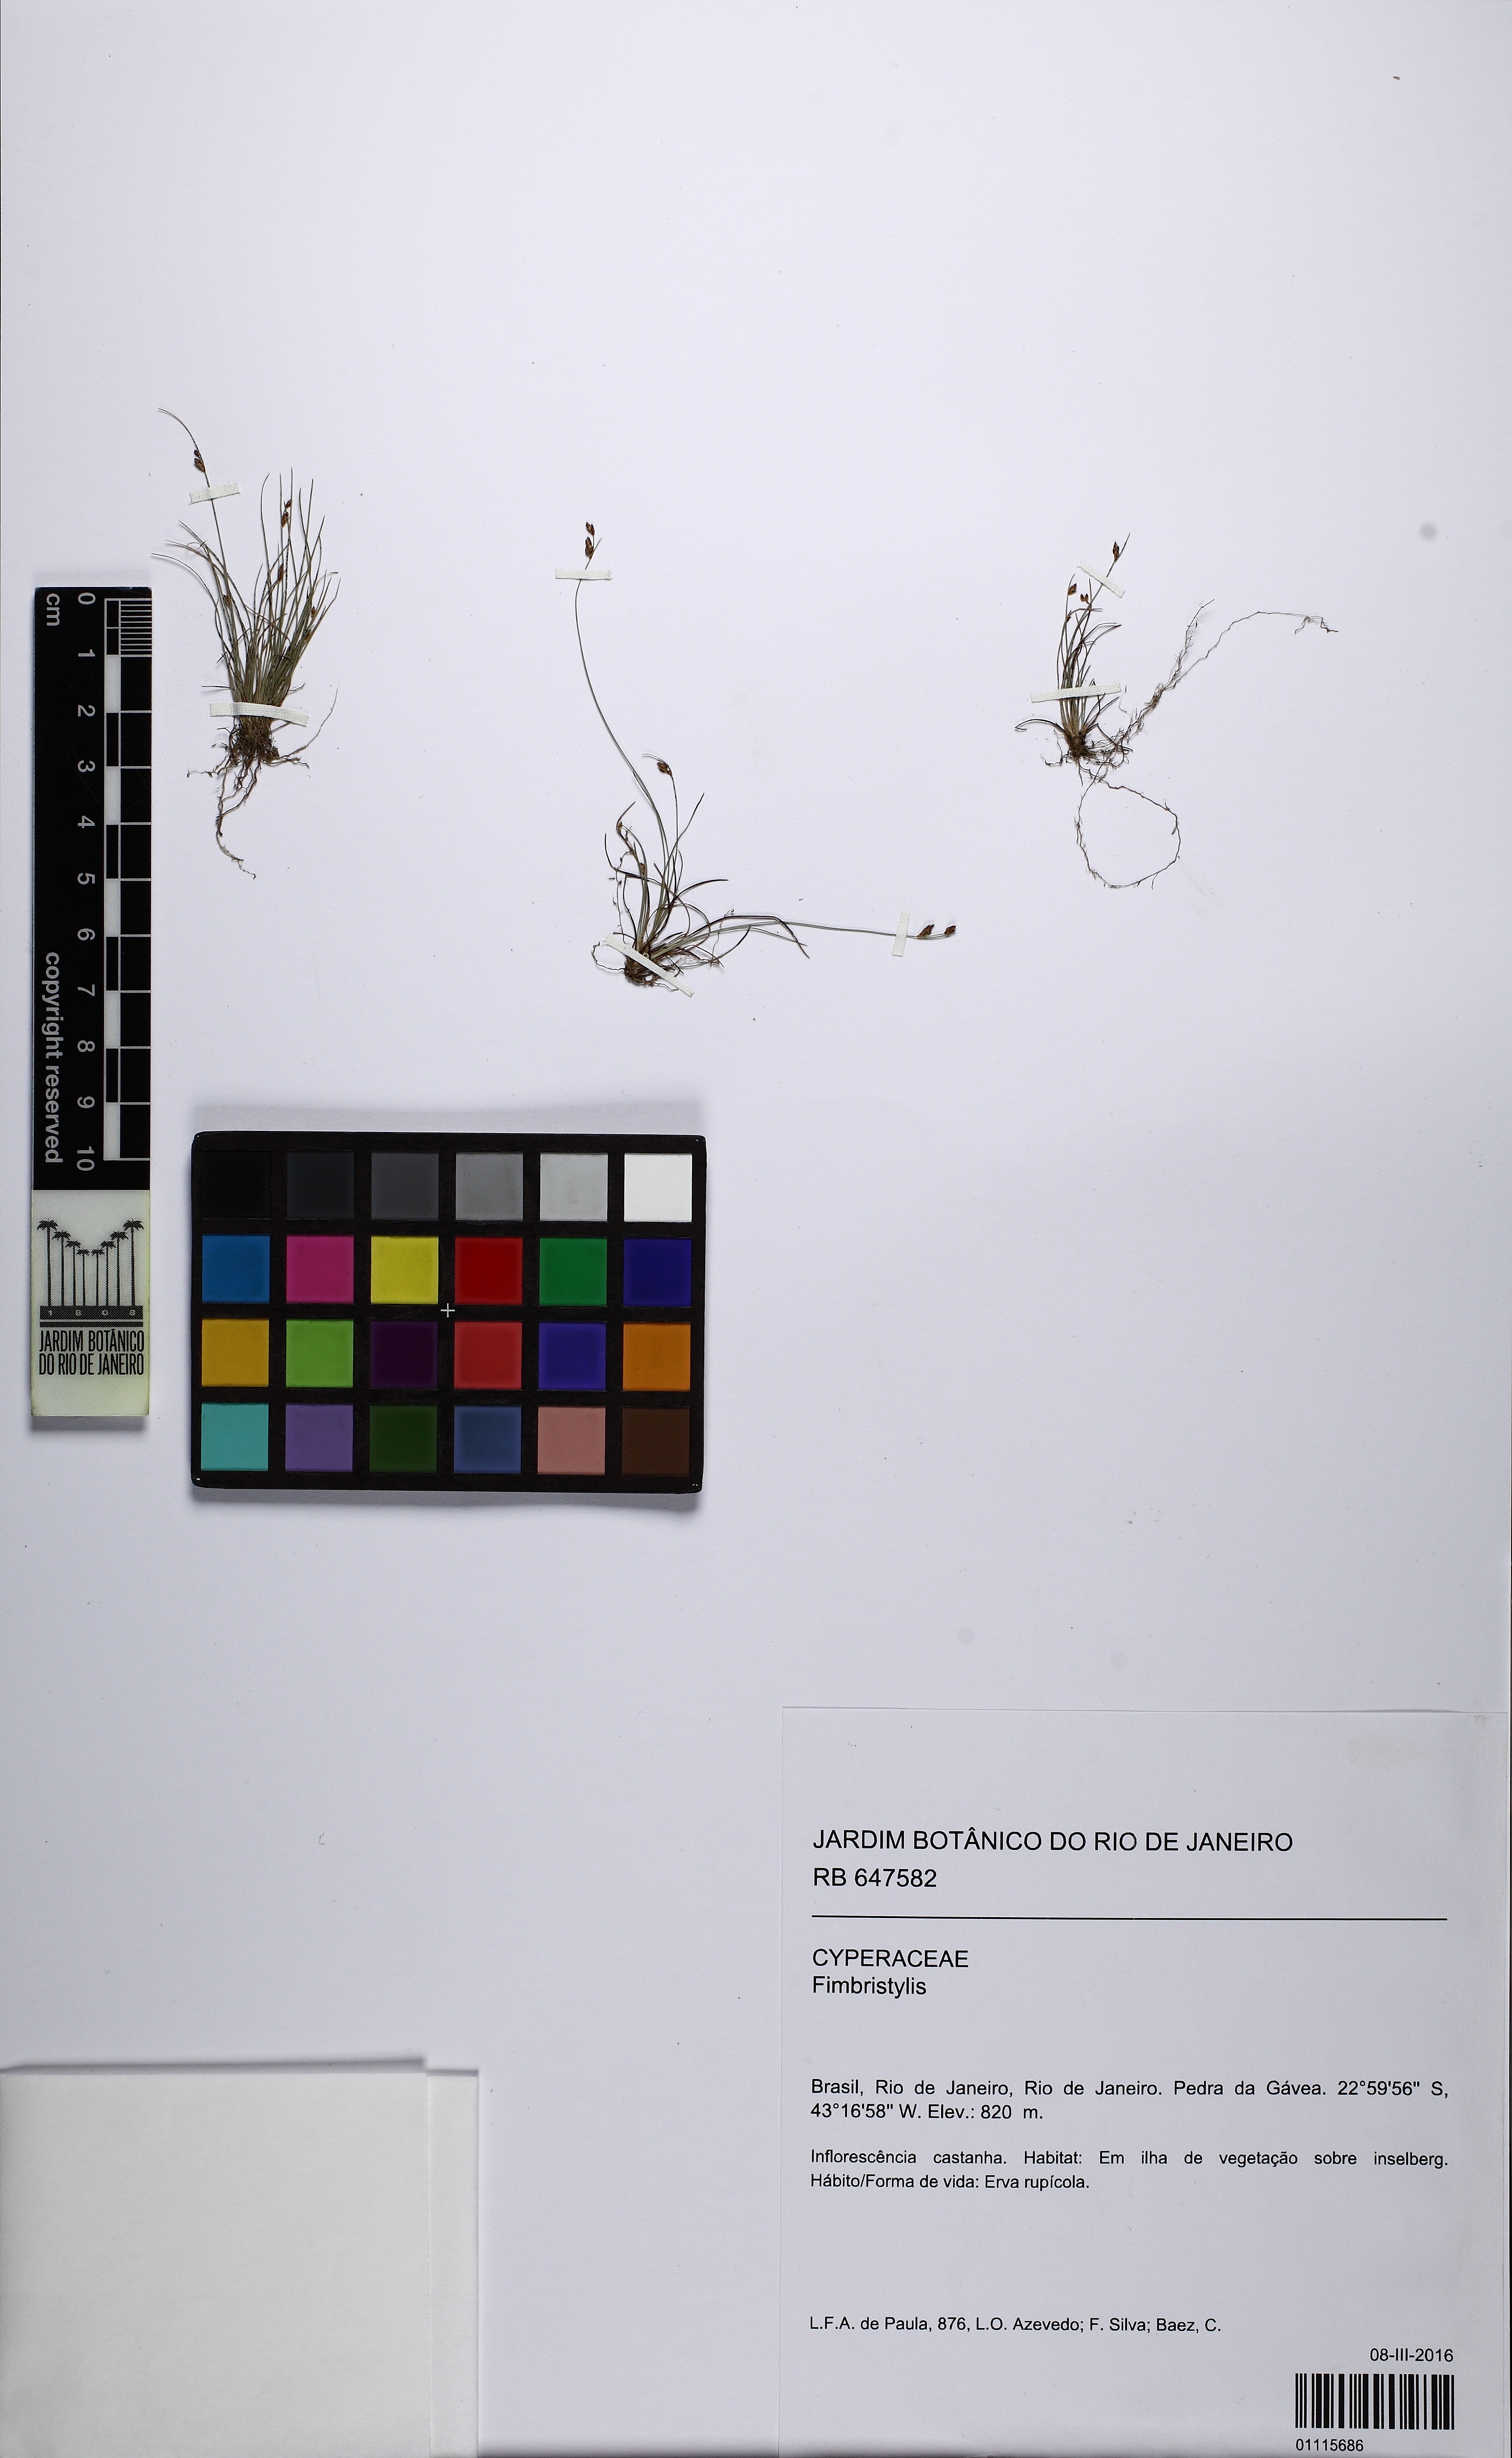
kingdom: Plantae
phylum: Tracheophyta
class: Liliopsida
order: Poales
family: Cyperaceae
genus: Bulbostylis
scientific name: Bulbostylis
